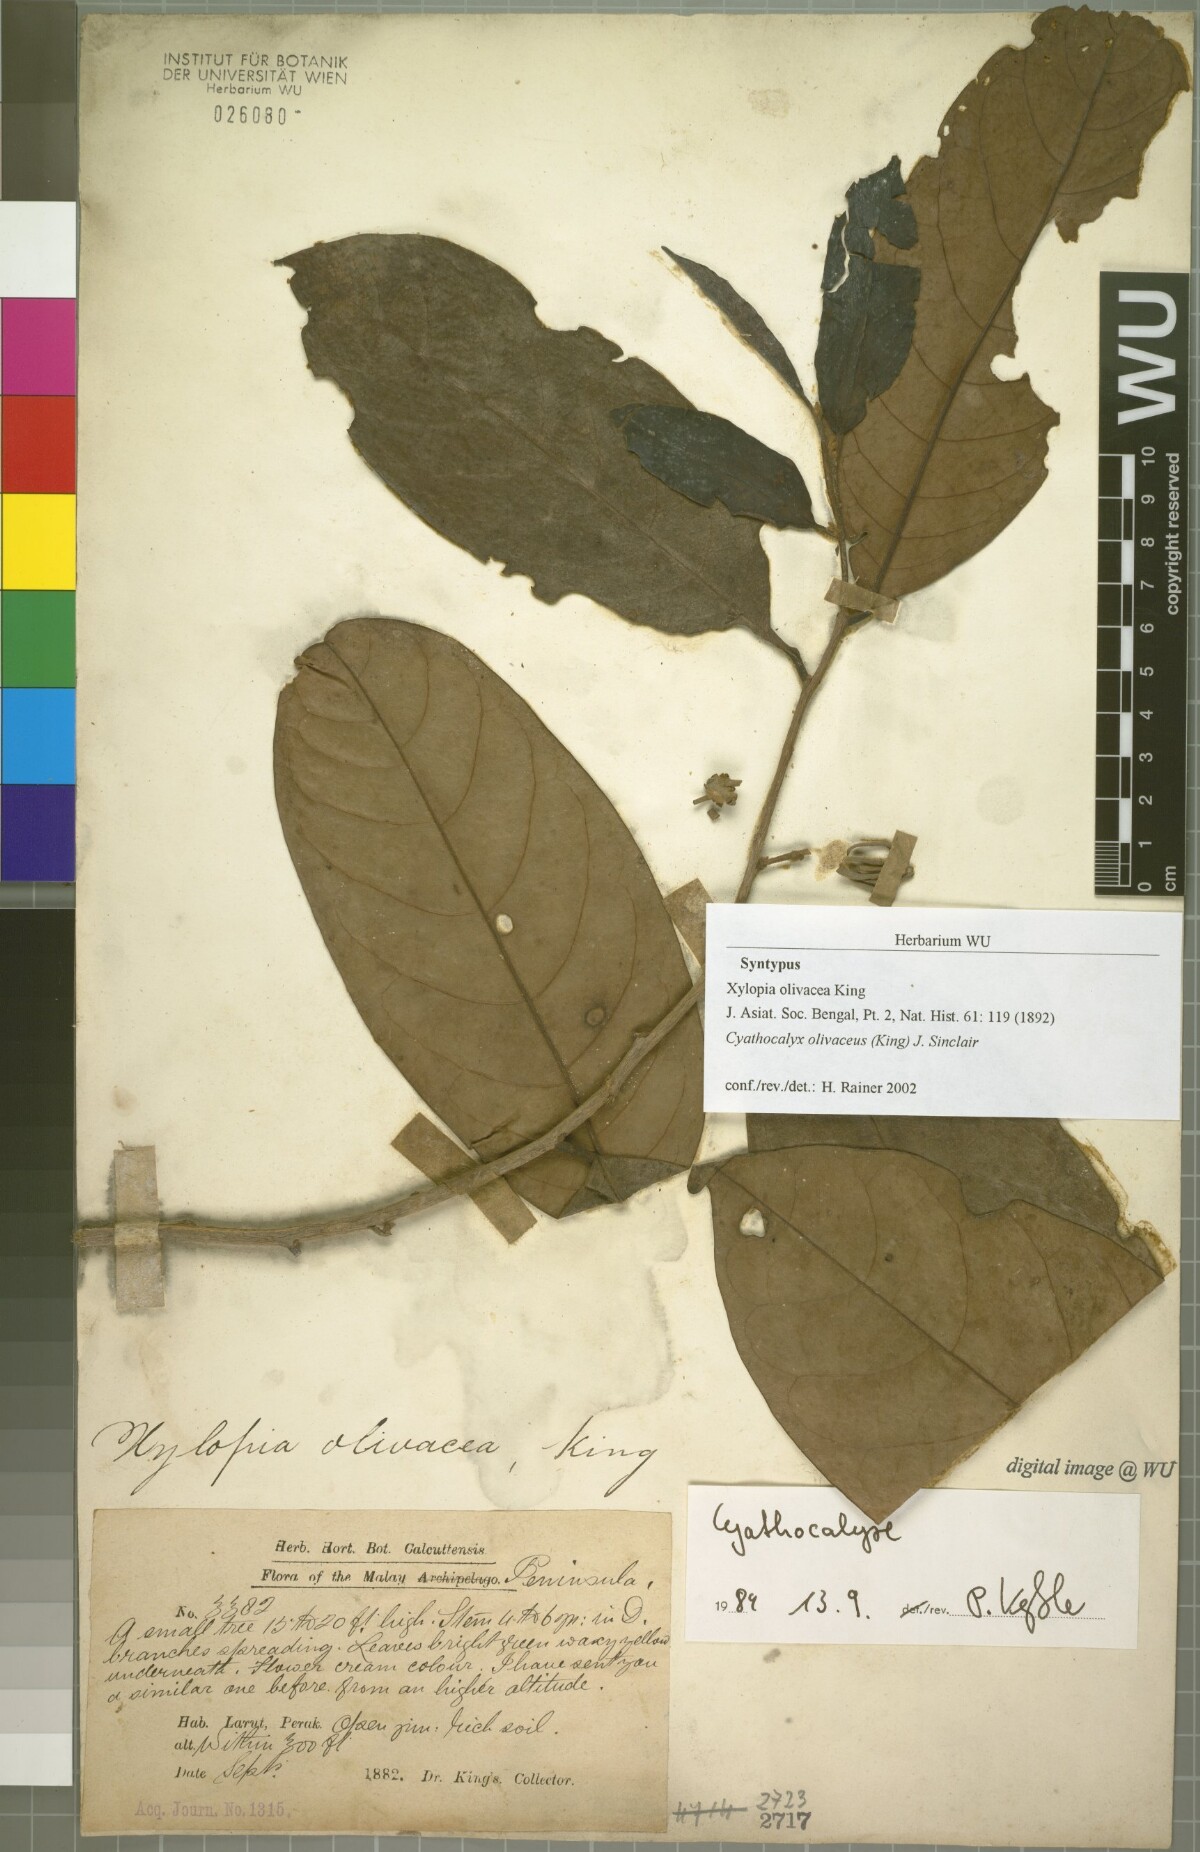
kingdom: Plantae
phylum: Tracheophyta
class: Magnoliopsida
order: Magnoliales
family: Annonaceae
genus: Drepananthus
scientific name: Drepananthus olivaceus
